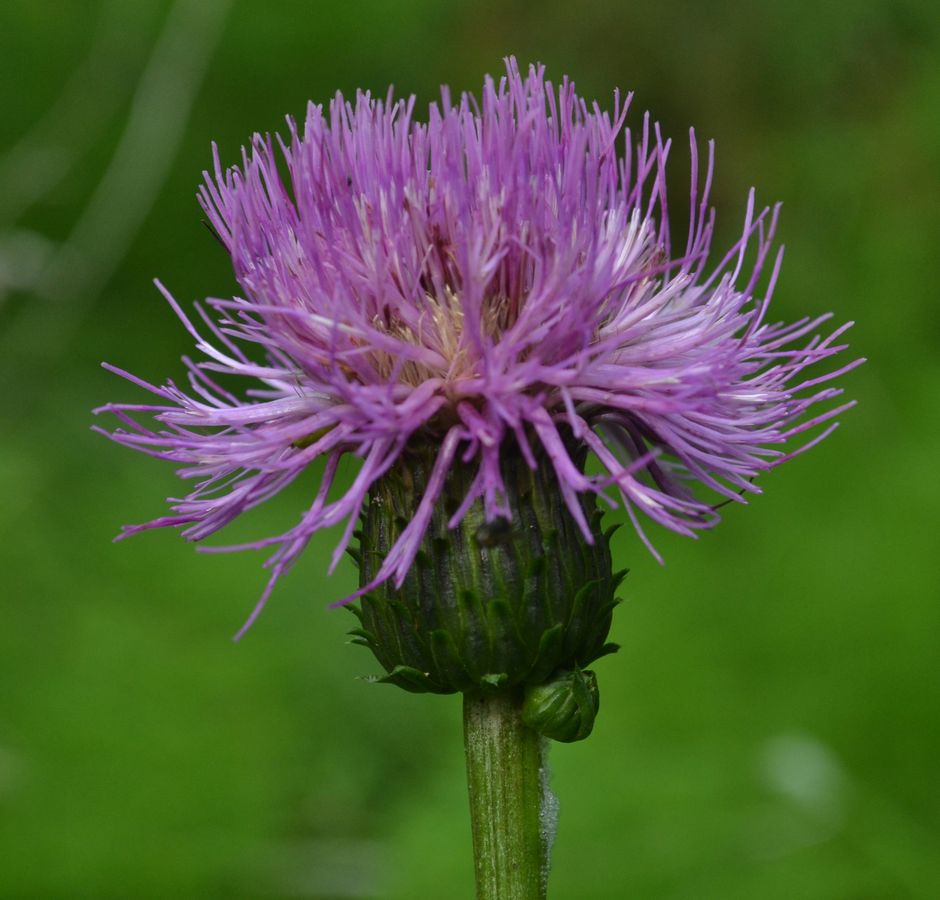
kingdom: Plantae
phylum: Tracheophyta
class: Magnoliopsida
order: Asterales
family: Asteraceae
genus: Cirsium
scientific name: Cirsium heterophyllum
